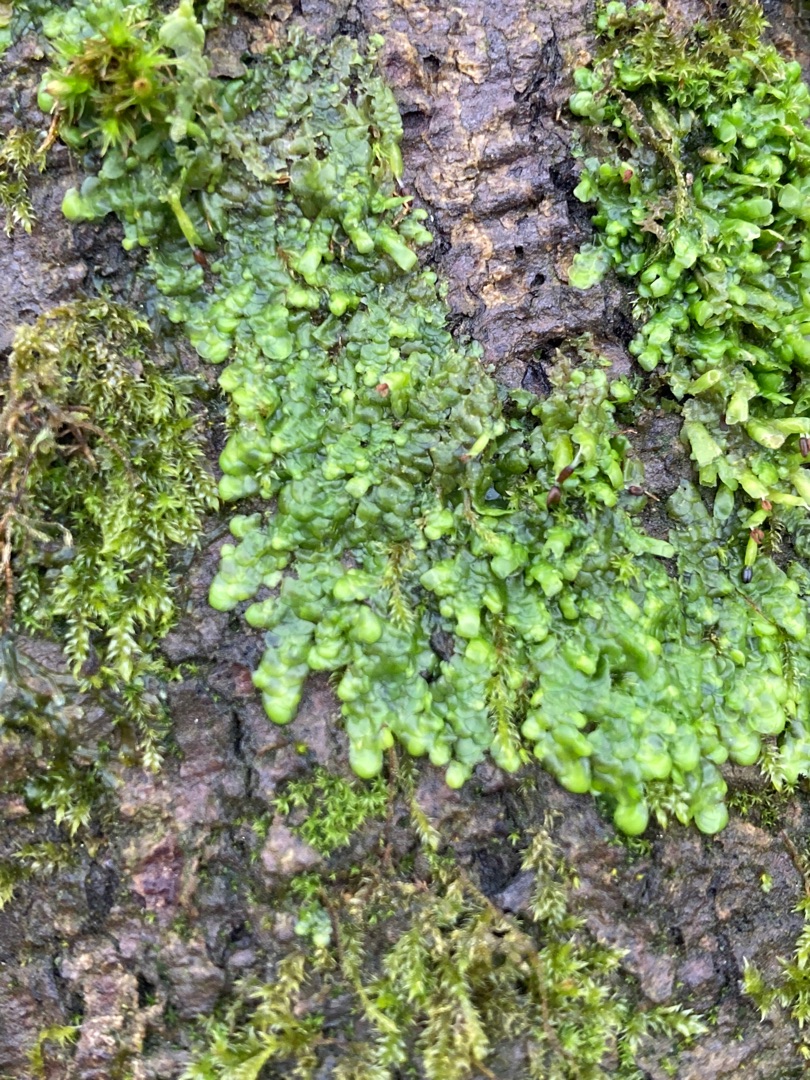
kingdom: Plantae
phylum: Marchantiophyta
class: Jungermanniopsida
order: Porellales
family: Radulaceae
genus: Radula
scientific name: Radula complanata
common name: Almindelig spartelmos
